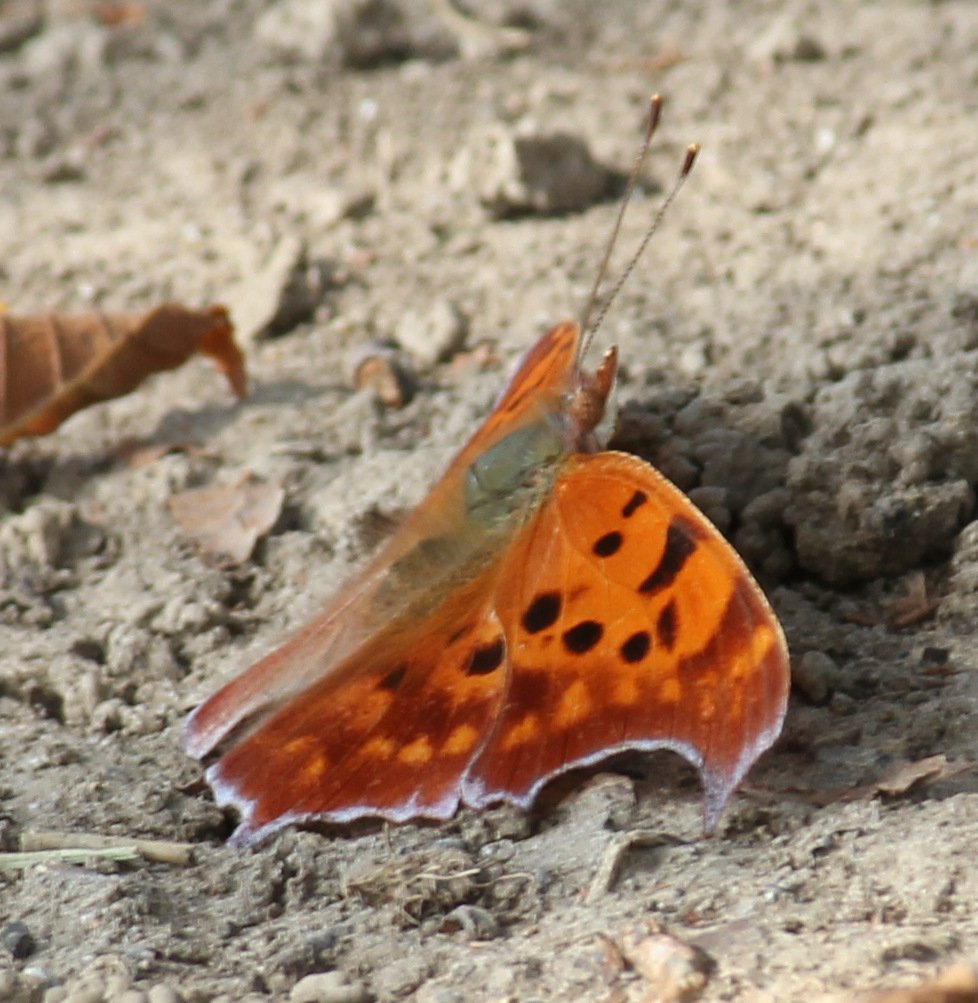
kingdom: Animalia
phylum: Arthropoda
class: Insecta
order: Lepidoptera
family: Nymphalidae
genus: Polygonia
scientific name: Polygonia interrogationis
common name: Question Mark
